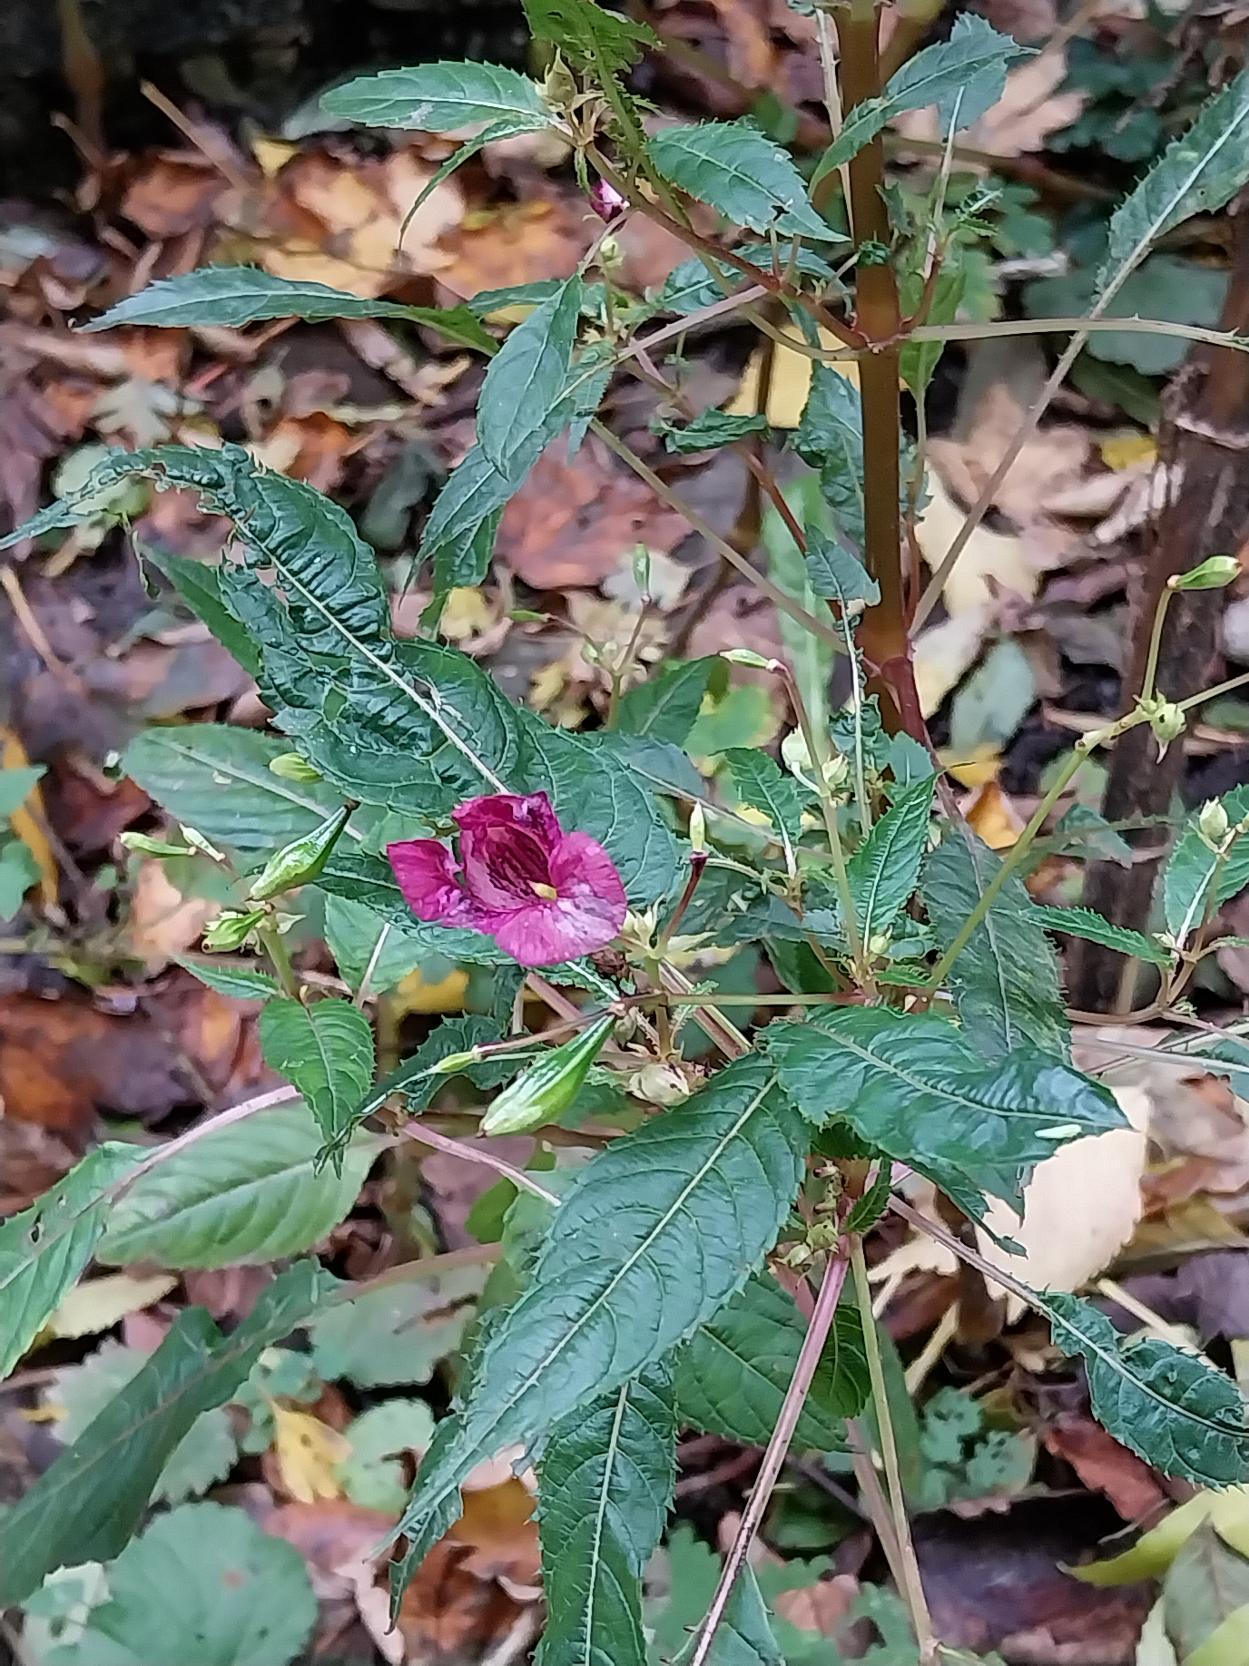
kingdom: Plantae
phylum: Tracheophyta
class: Magnoliopsida
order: Ericales
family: Balsaminaceae
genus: Impatiens
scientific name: Impatiens glandulifera
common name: Kæmpe-balsamin
